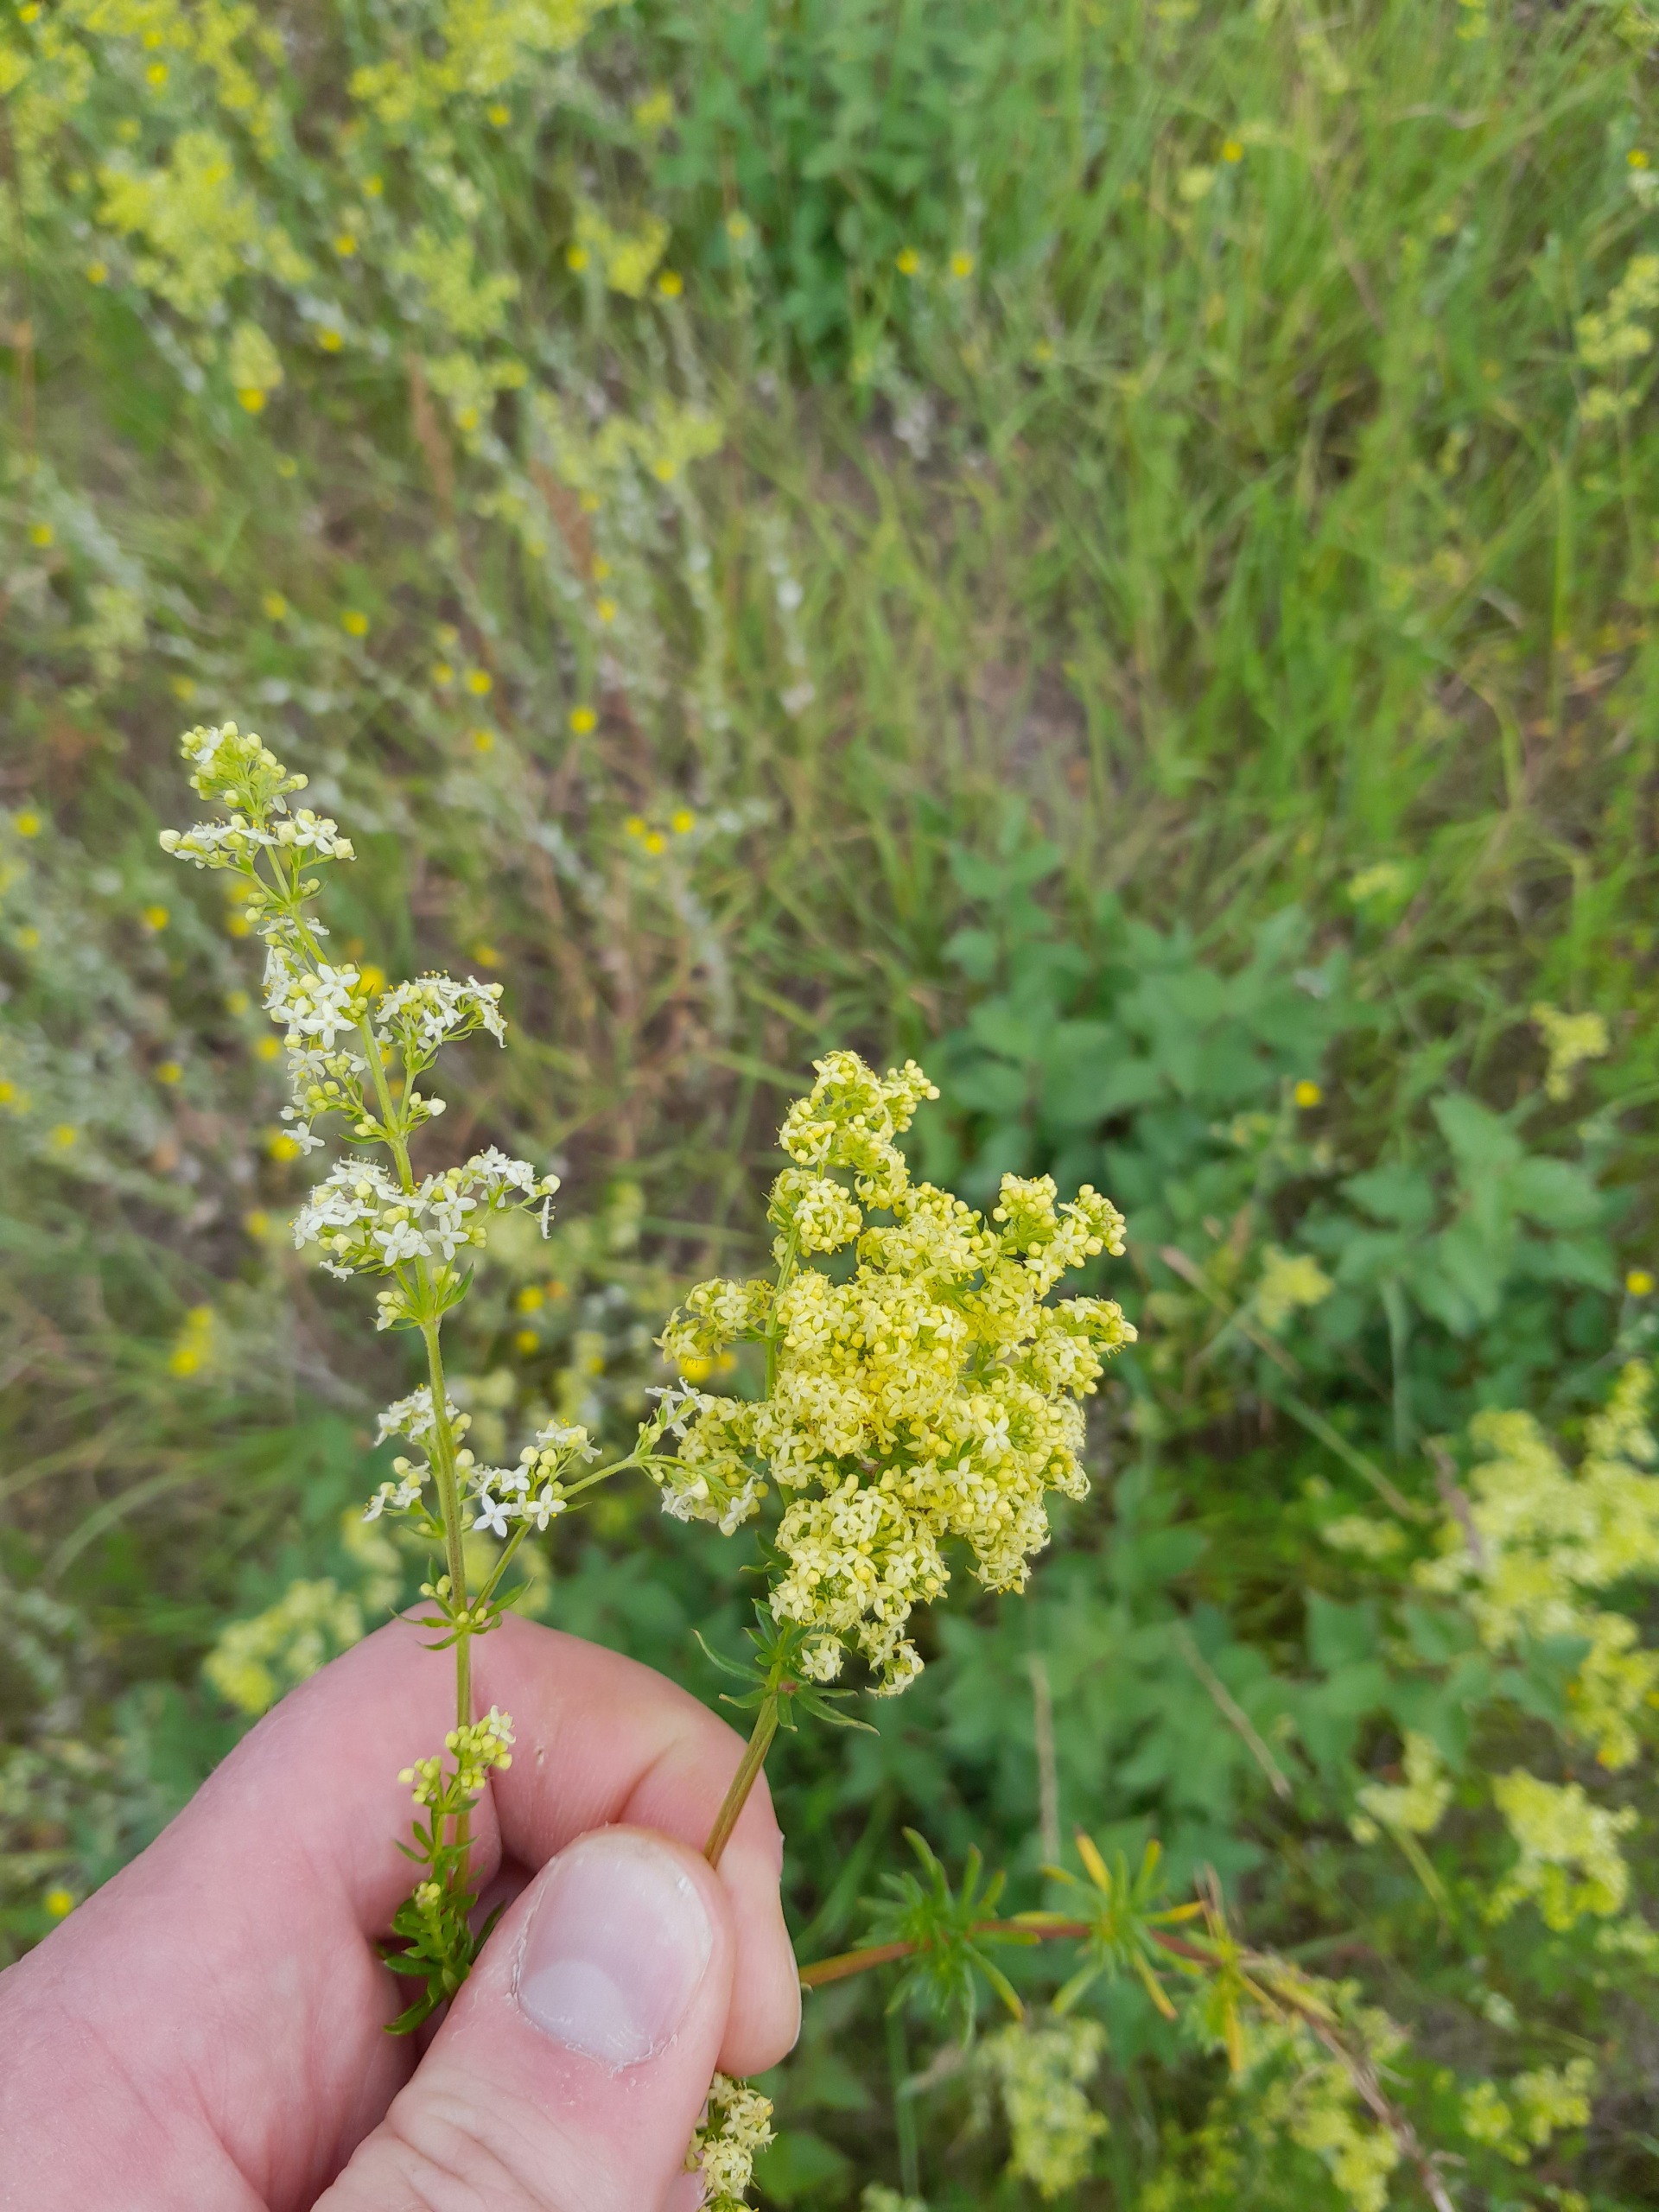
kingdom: Plantae
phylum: Tracheophyta
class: Magnoliopsida
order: Gentianales
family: Rubiaceae
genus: Galium
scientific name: Galium
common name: Hvidgul snerre
